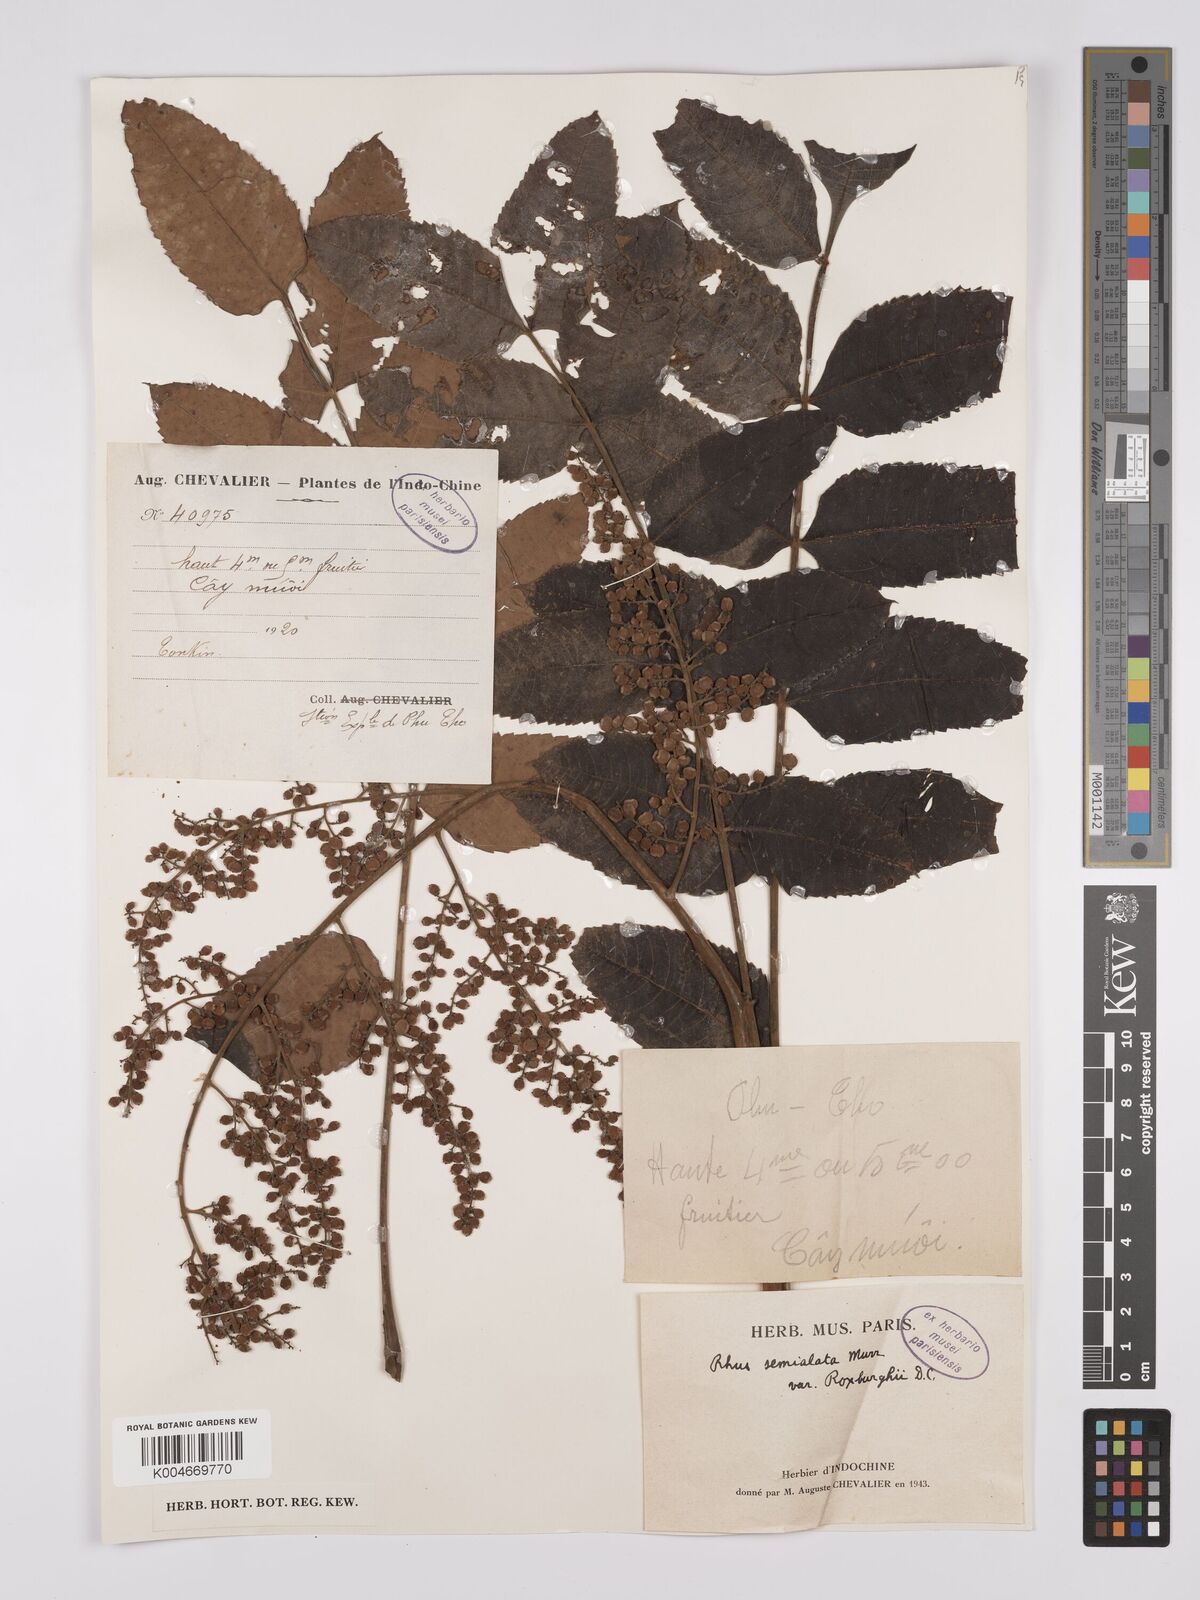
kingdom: Plantae
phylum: Tracheophyta
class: Magnoliopsida
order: Sapindales
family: Anacardiaceae
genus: Rhus
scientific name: Rhus chinensis
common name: Chinese gall
